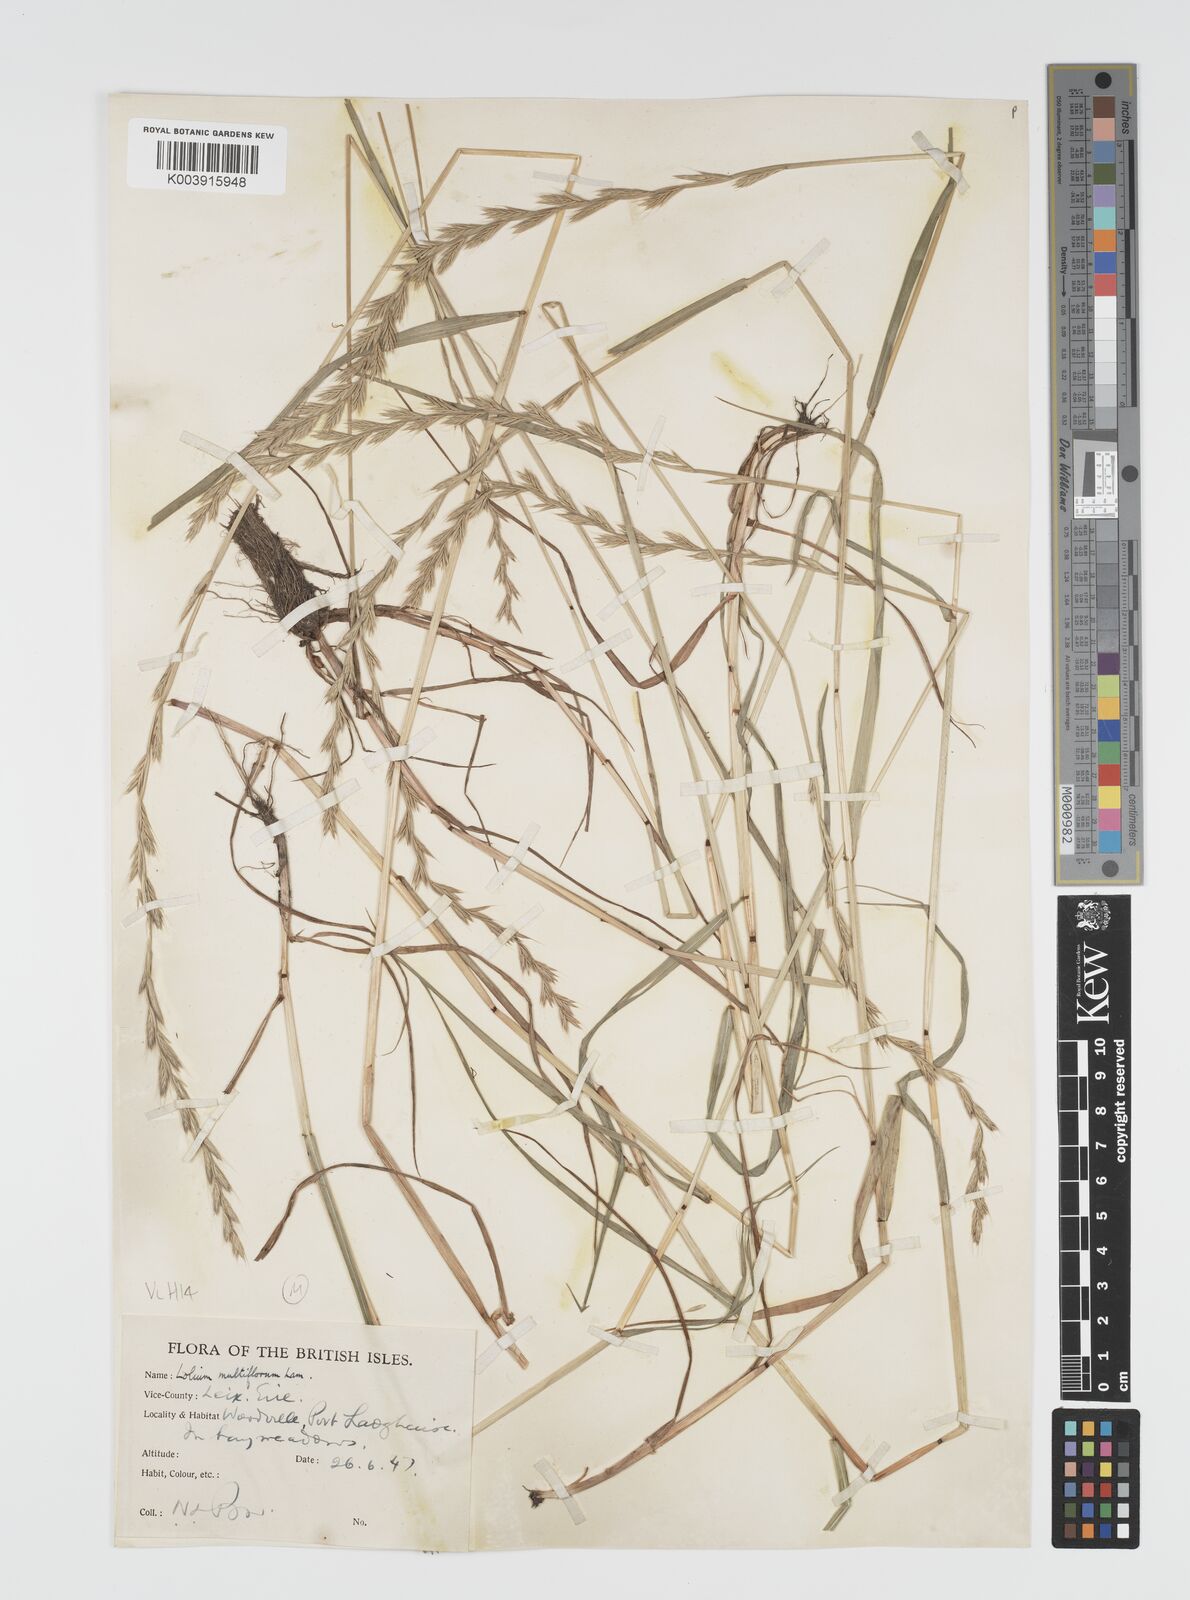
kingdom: Plantae
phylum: Tracheophyta
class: Liliopsida
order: Poales
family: Poaceae
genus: Lolium
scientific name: Lolium multiflorum
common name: Annual ryegrass
